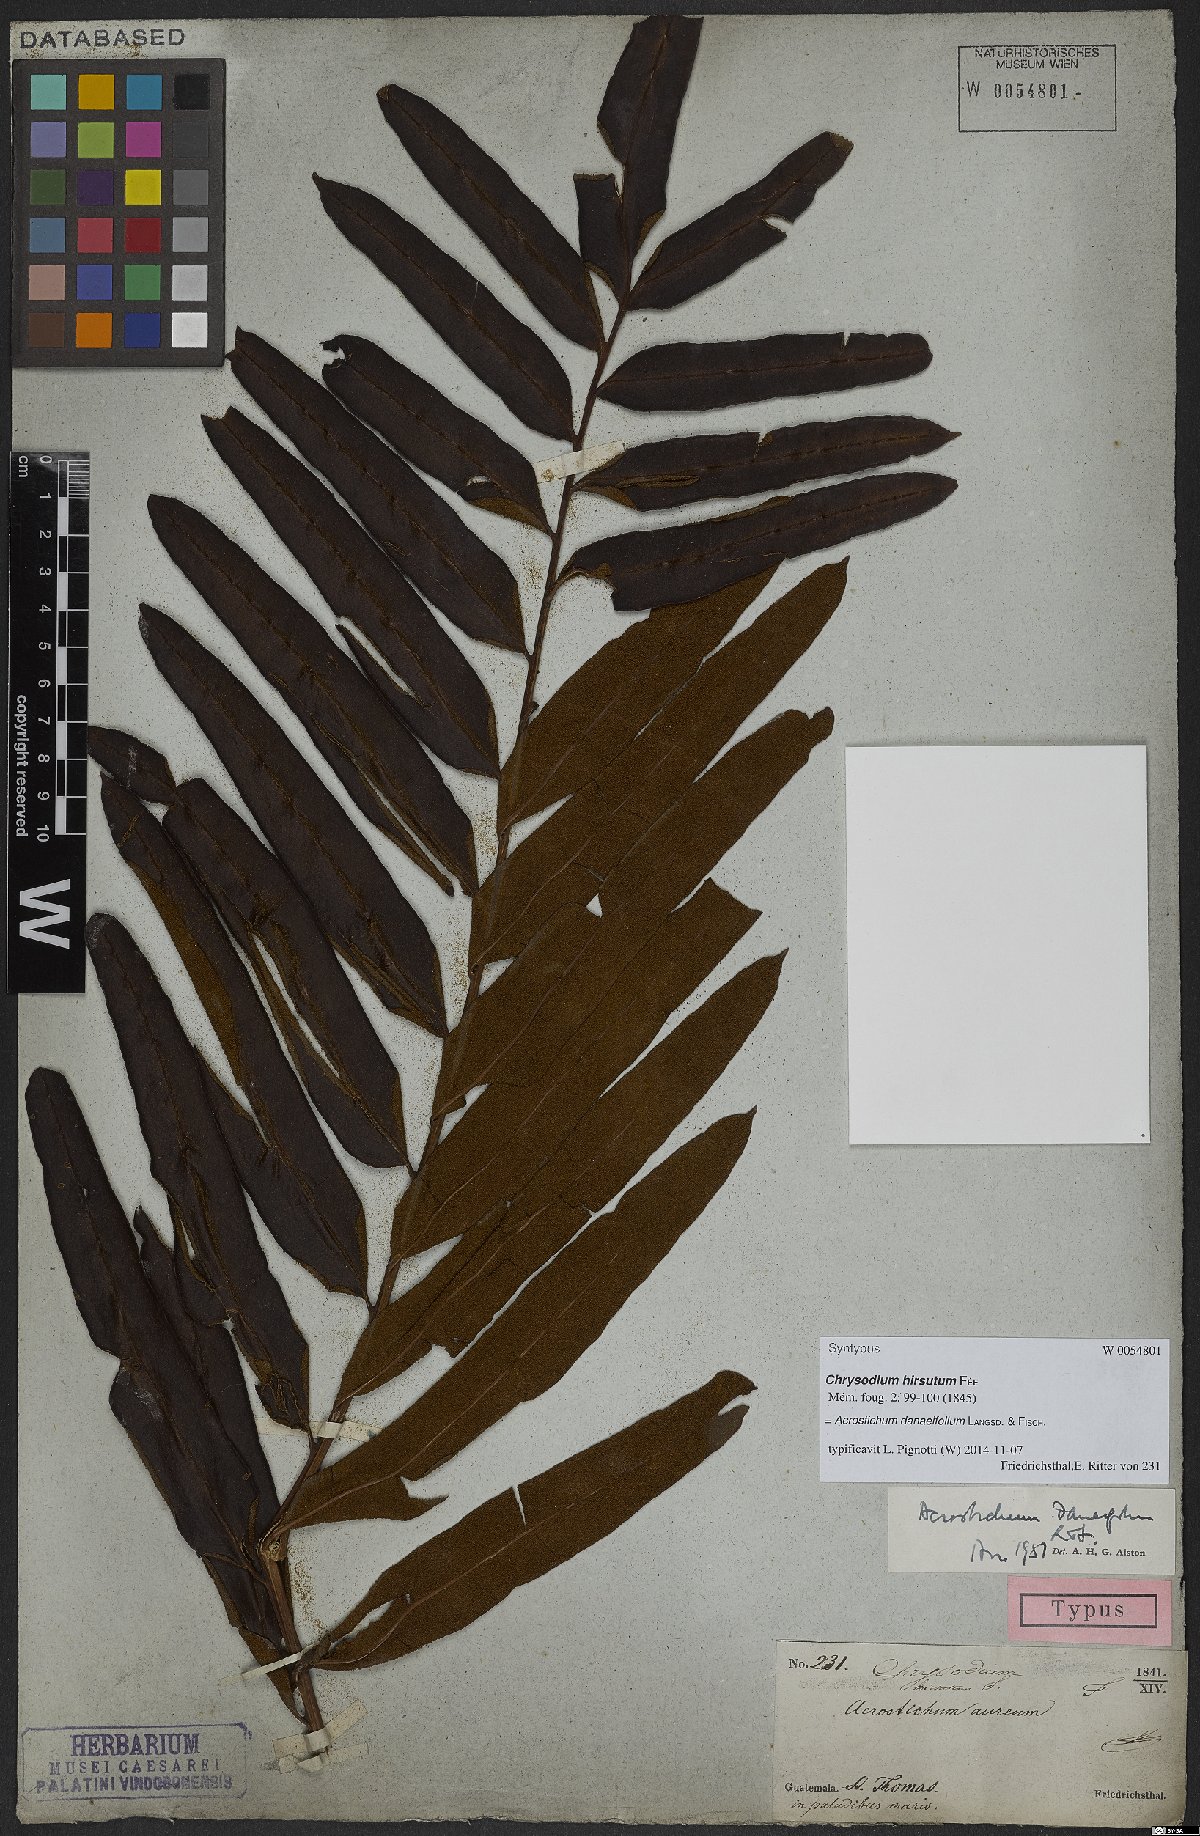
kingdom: Plantae
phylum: Tracheophyta
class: Polypodiopsida
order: Polypodiales
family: Pteridaceae
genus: Acrostichum
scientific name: Acrostichum danaeifolium
